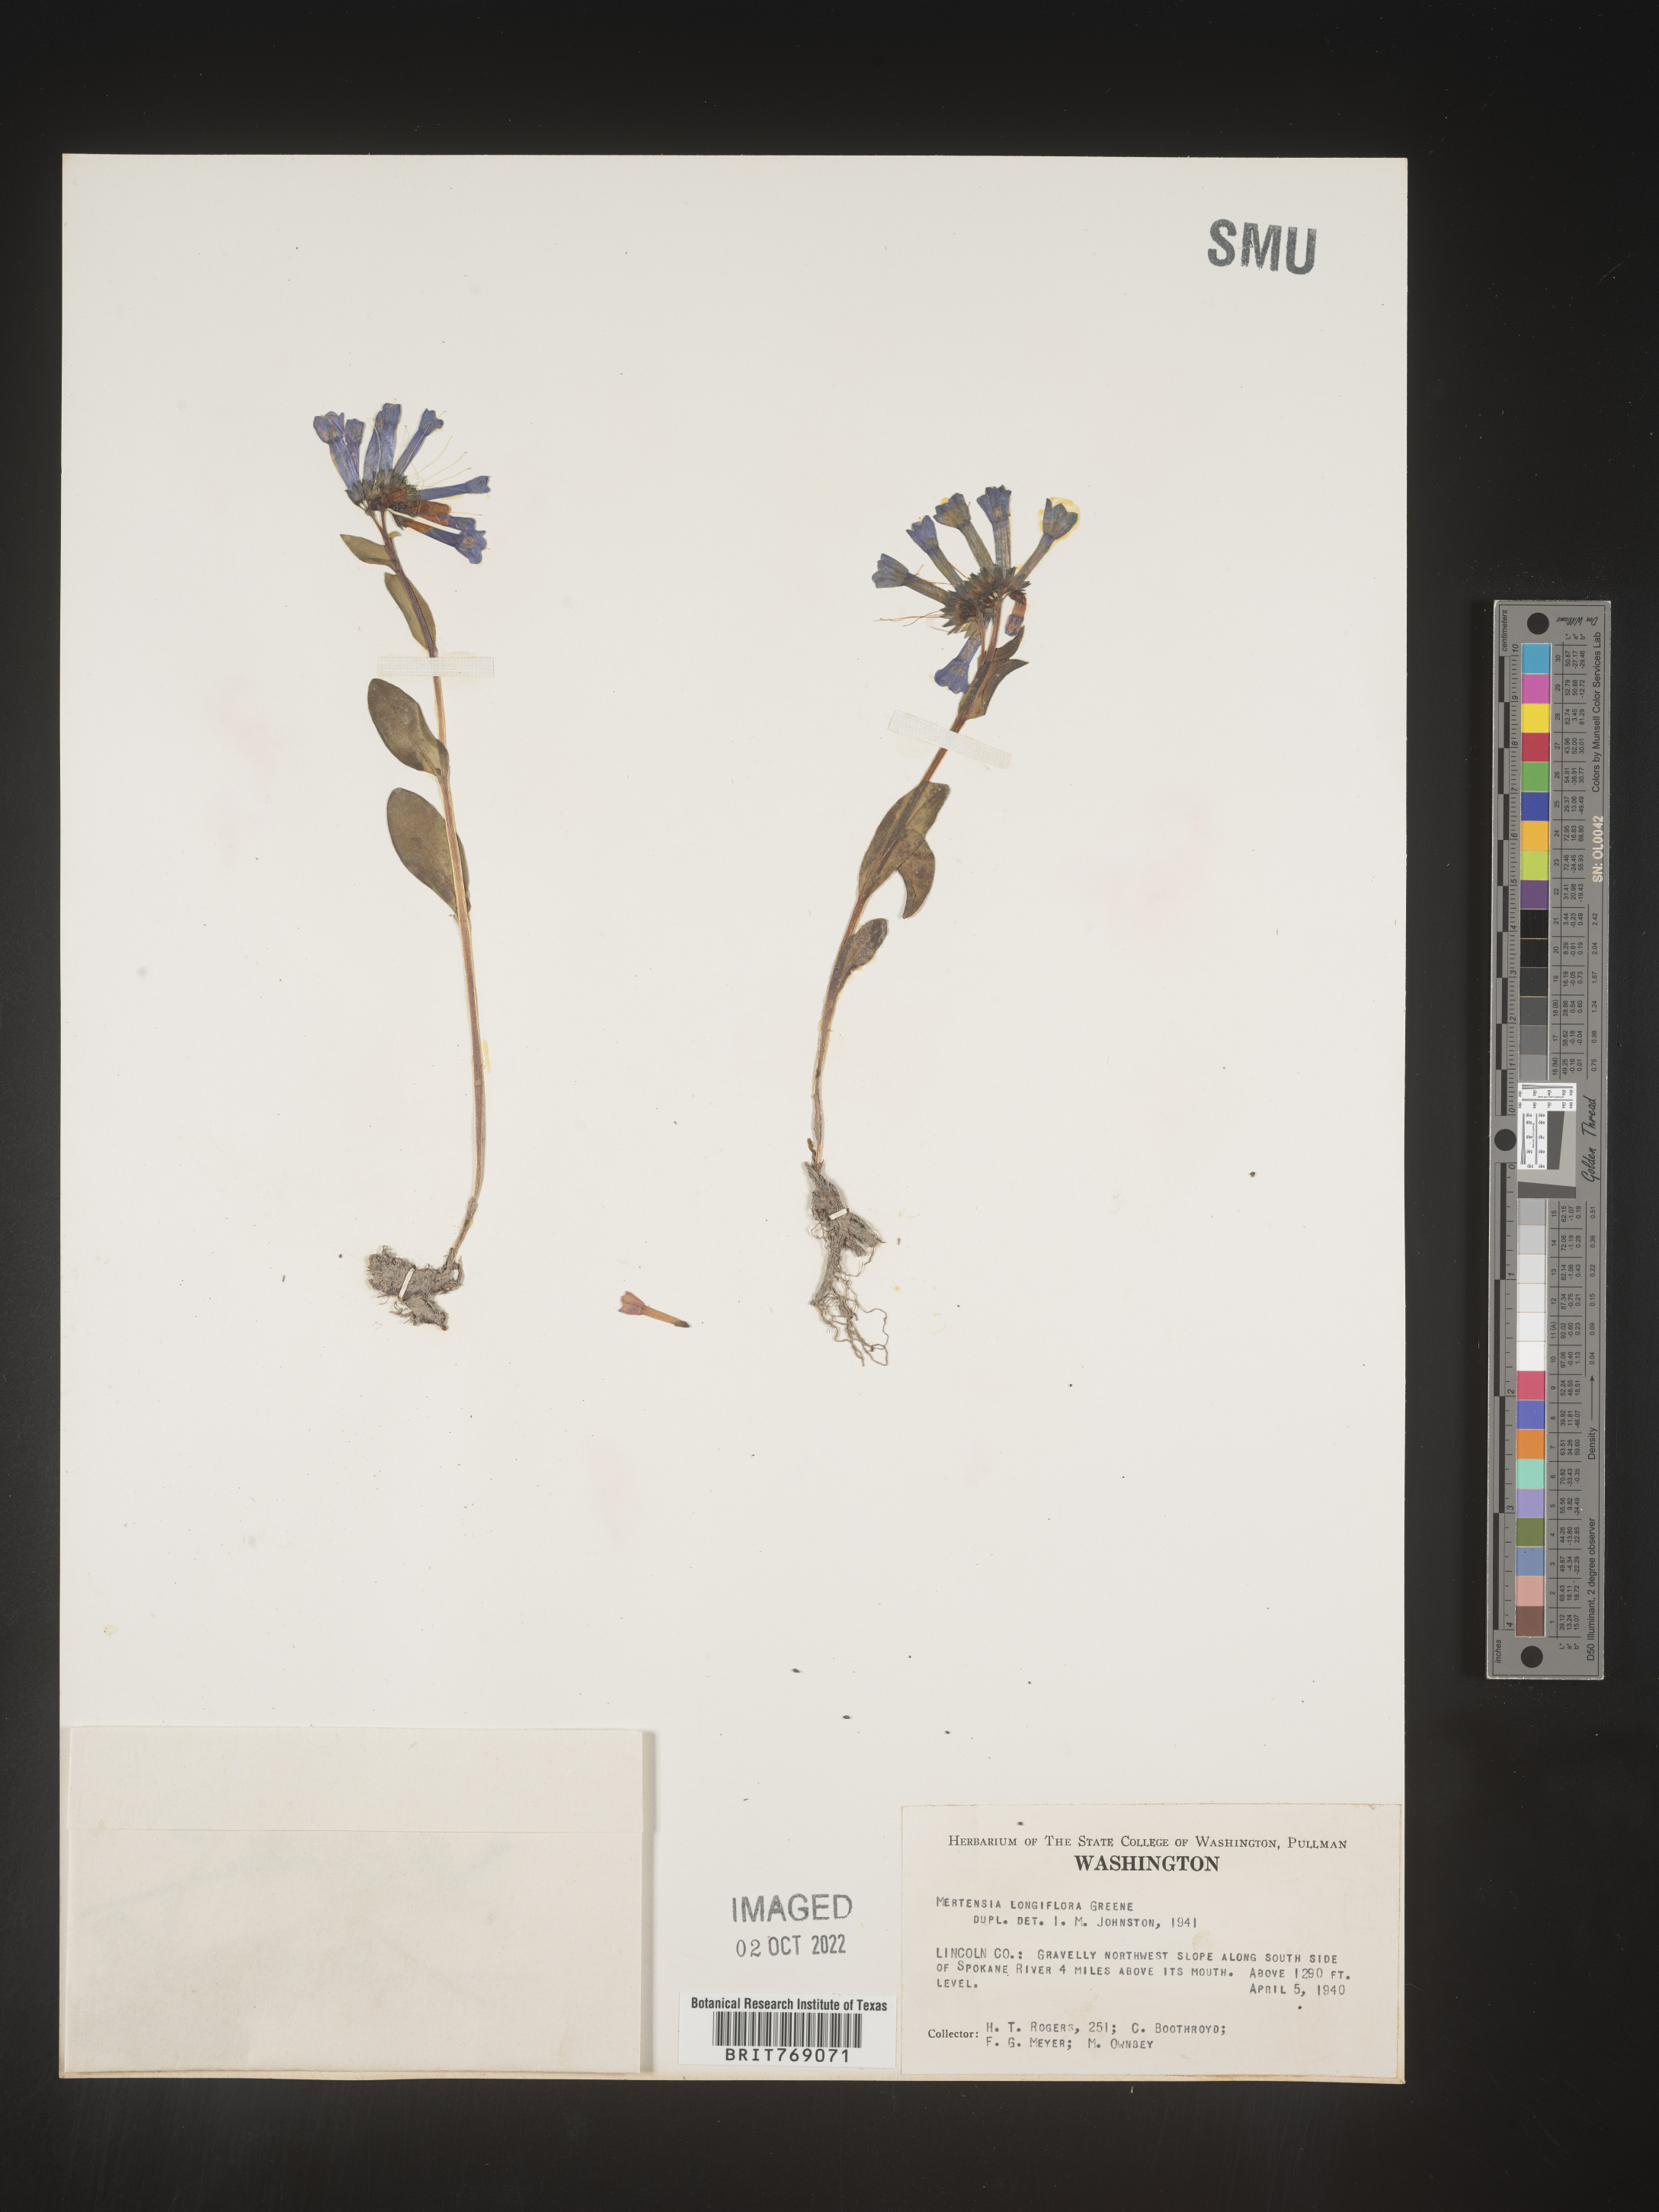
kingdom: Plantae
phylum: Tracheophyta
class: Magnoliopsida
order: Boraginales
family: Boraginaceae
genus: Mertensia
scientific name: Mertensia
